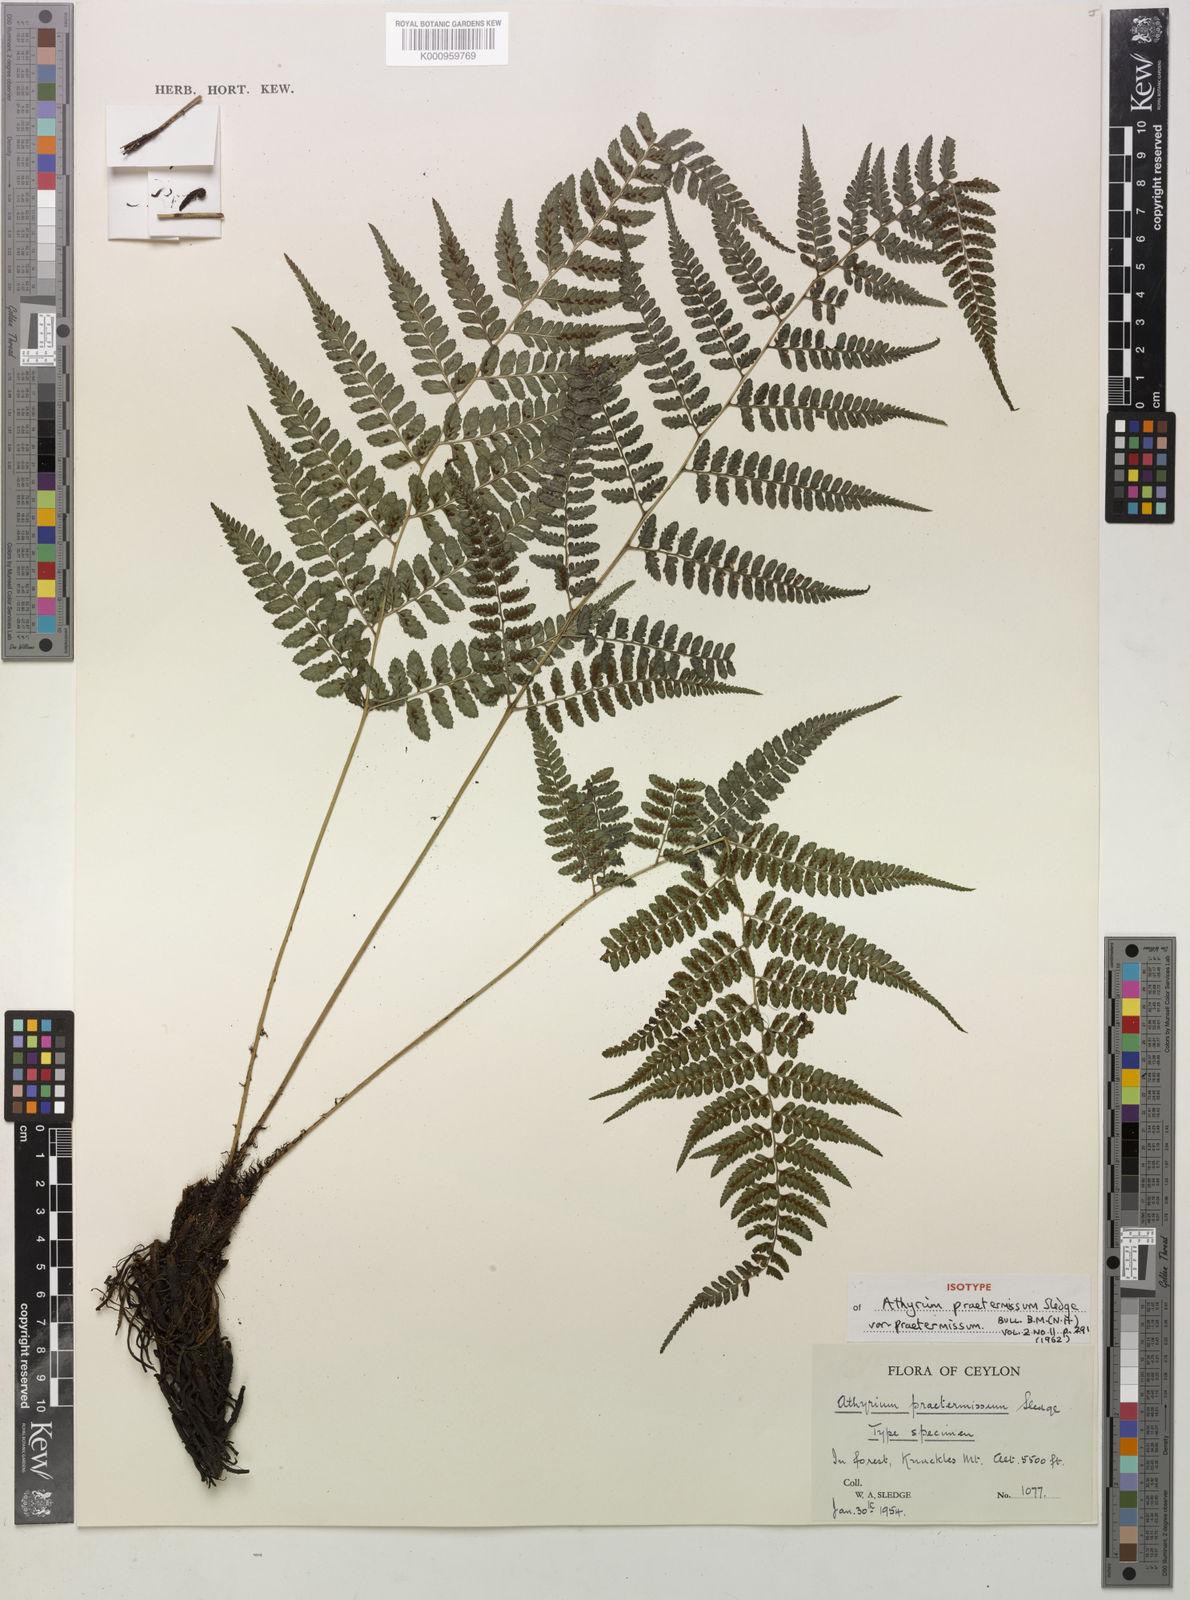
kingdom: Plantae
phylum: Tracheophyta
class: Polypodiopsida
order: Polypodiales
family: Athyriaceae
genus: Athyrium
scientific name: Athyrium praetermissum
